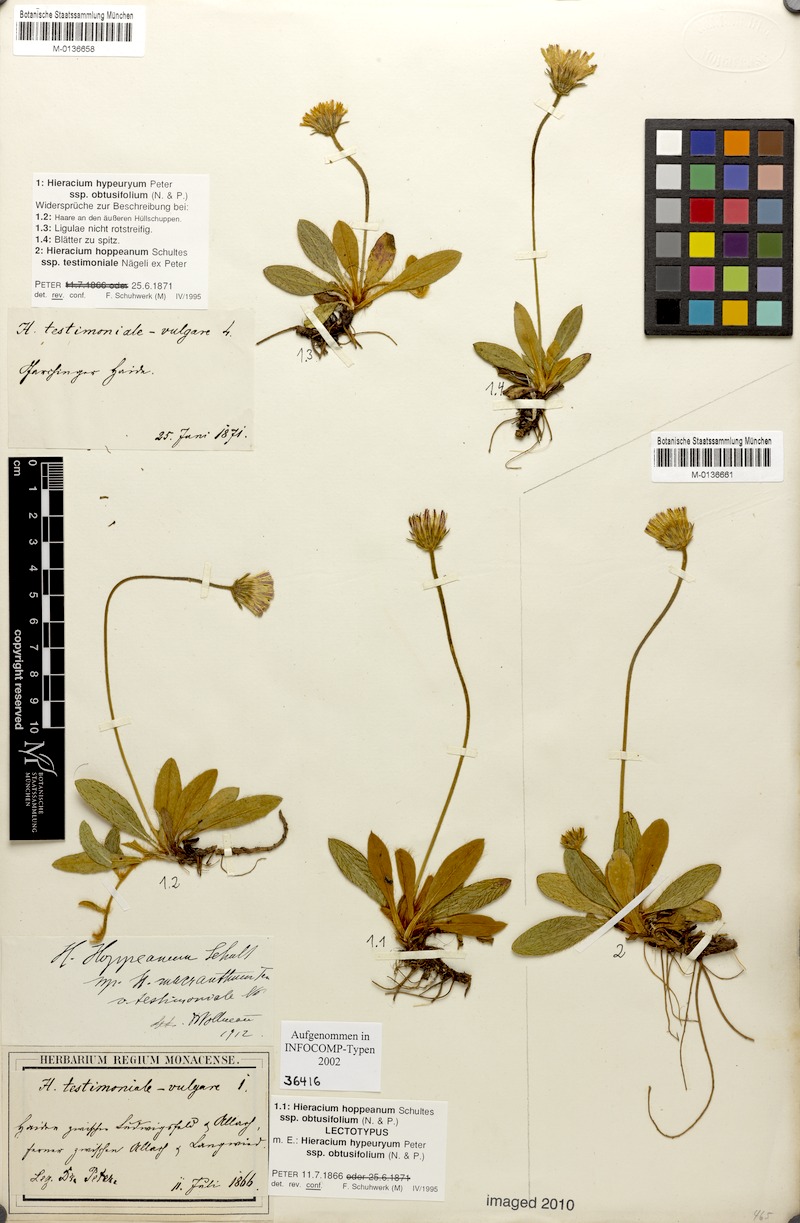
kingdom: Plantae
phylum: Tracheophyta
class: Magnoliopsida
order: Asterales
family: Asteraceae
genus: Pilosella
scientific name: Pilosella hypeurya
